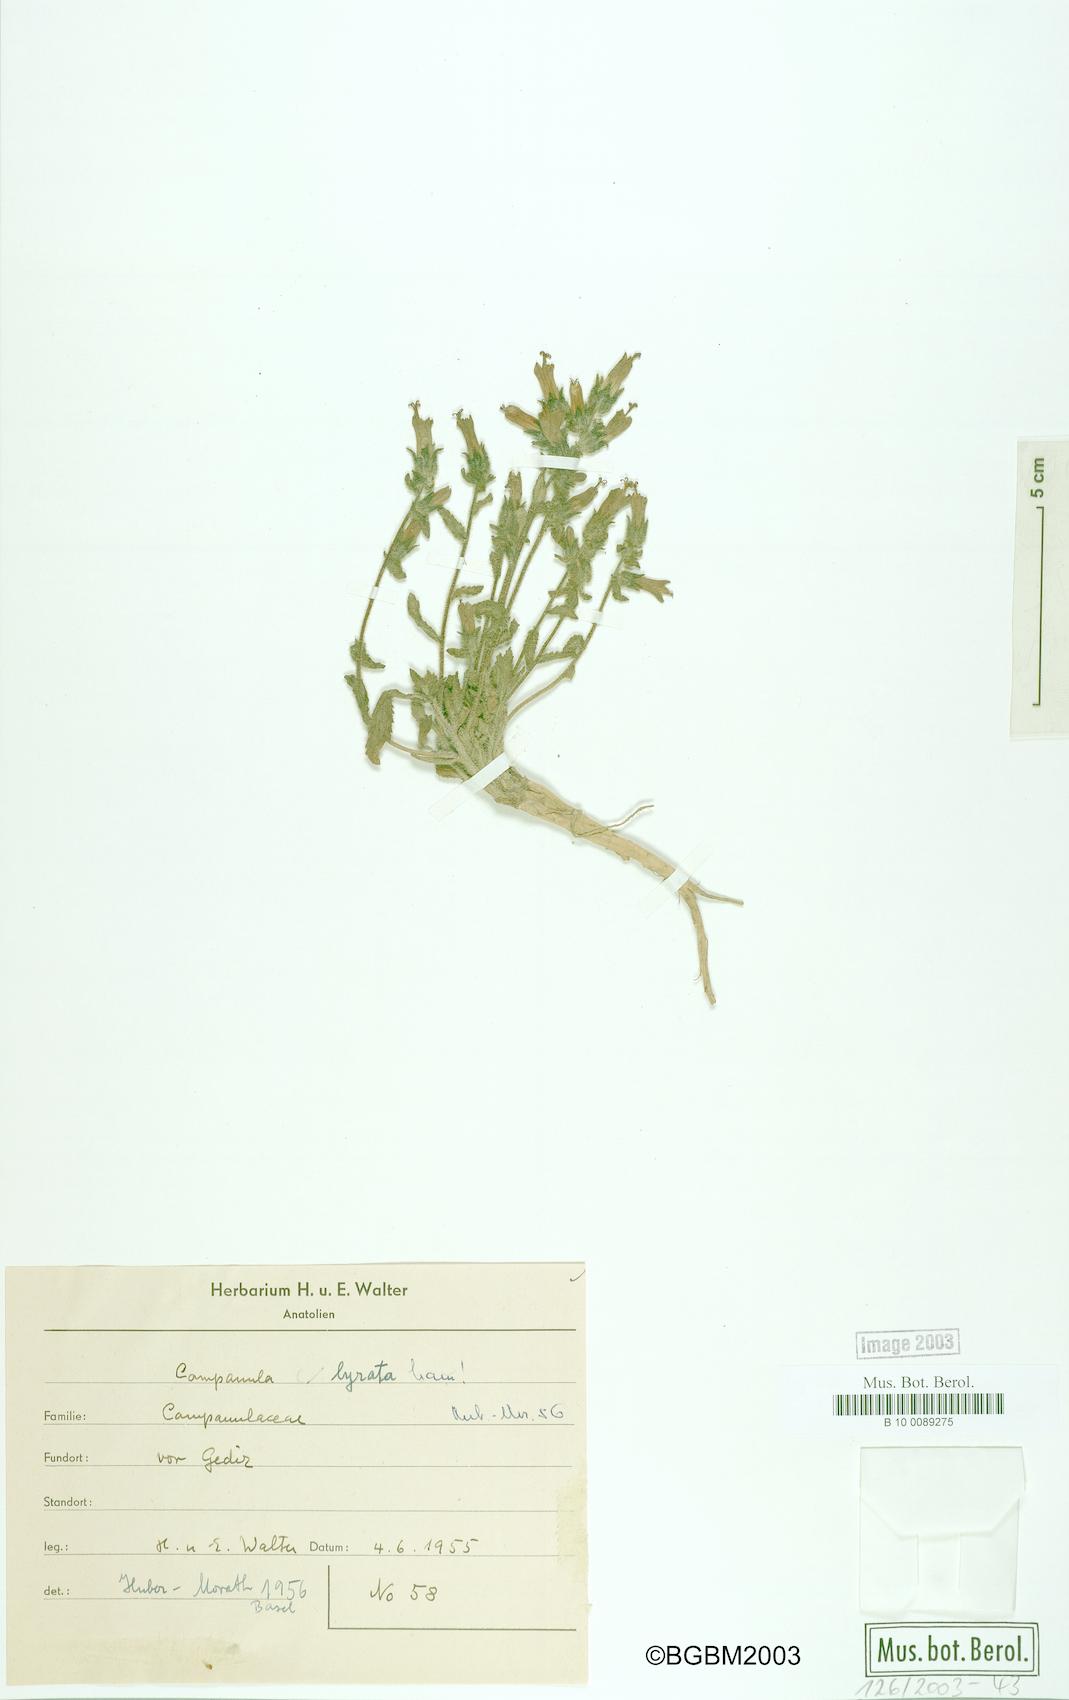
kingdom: Plantae
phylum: Tracheophyta
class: Magnoliopsida
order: Asterales
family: Campanulaceae
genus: Campanula
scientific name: Campanula lyrata
